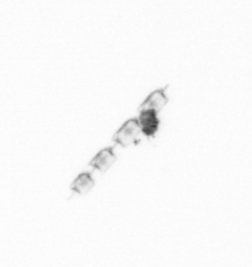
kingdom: Chromista
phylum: Ochrophyta
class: Bacillariophyceae
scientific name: Bacillariophyceae
